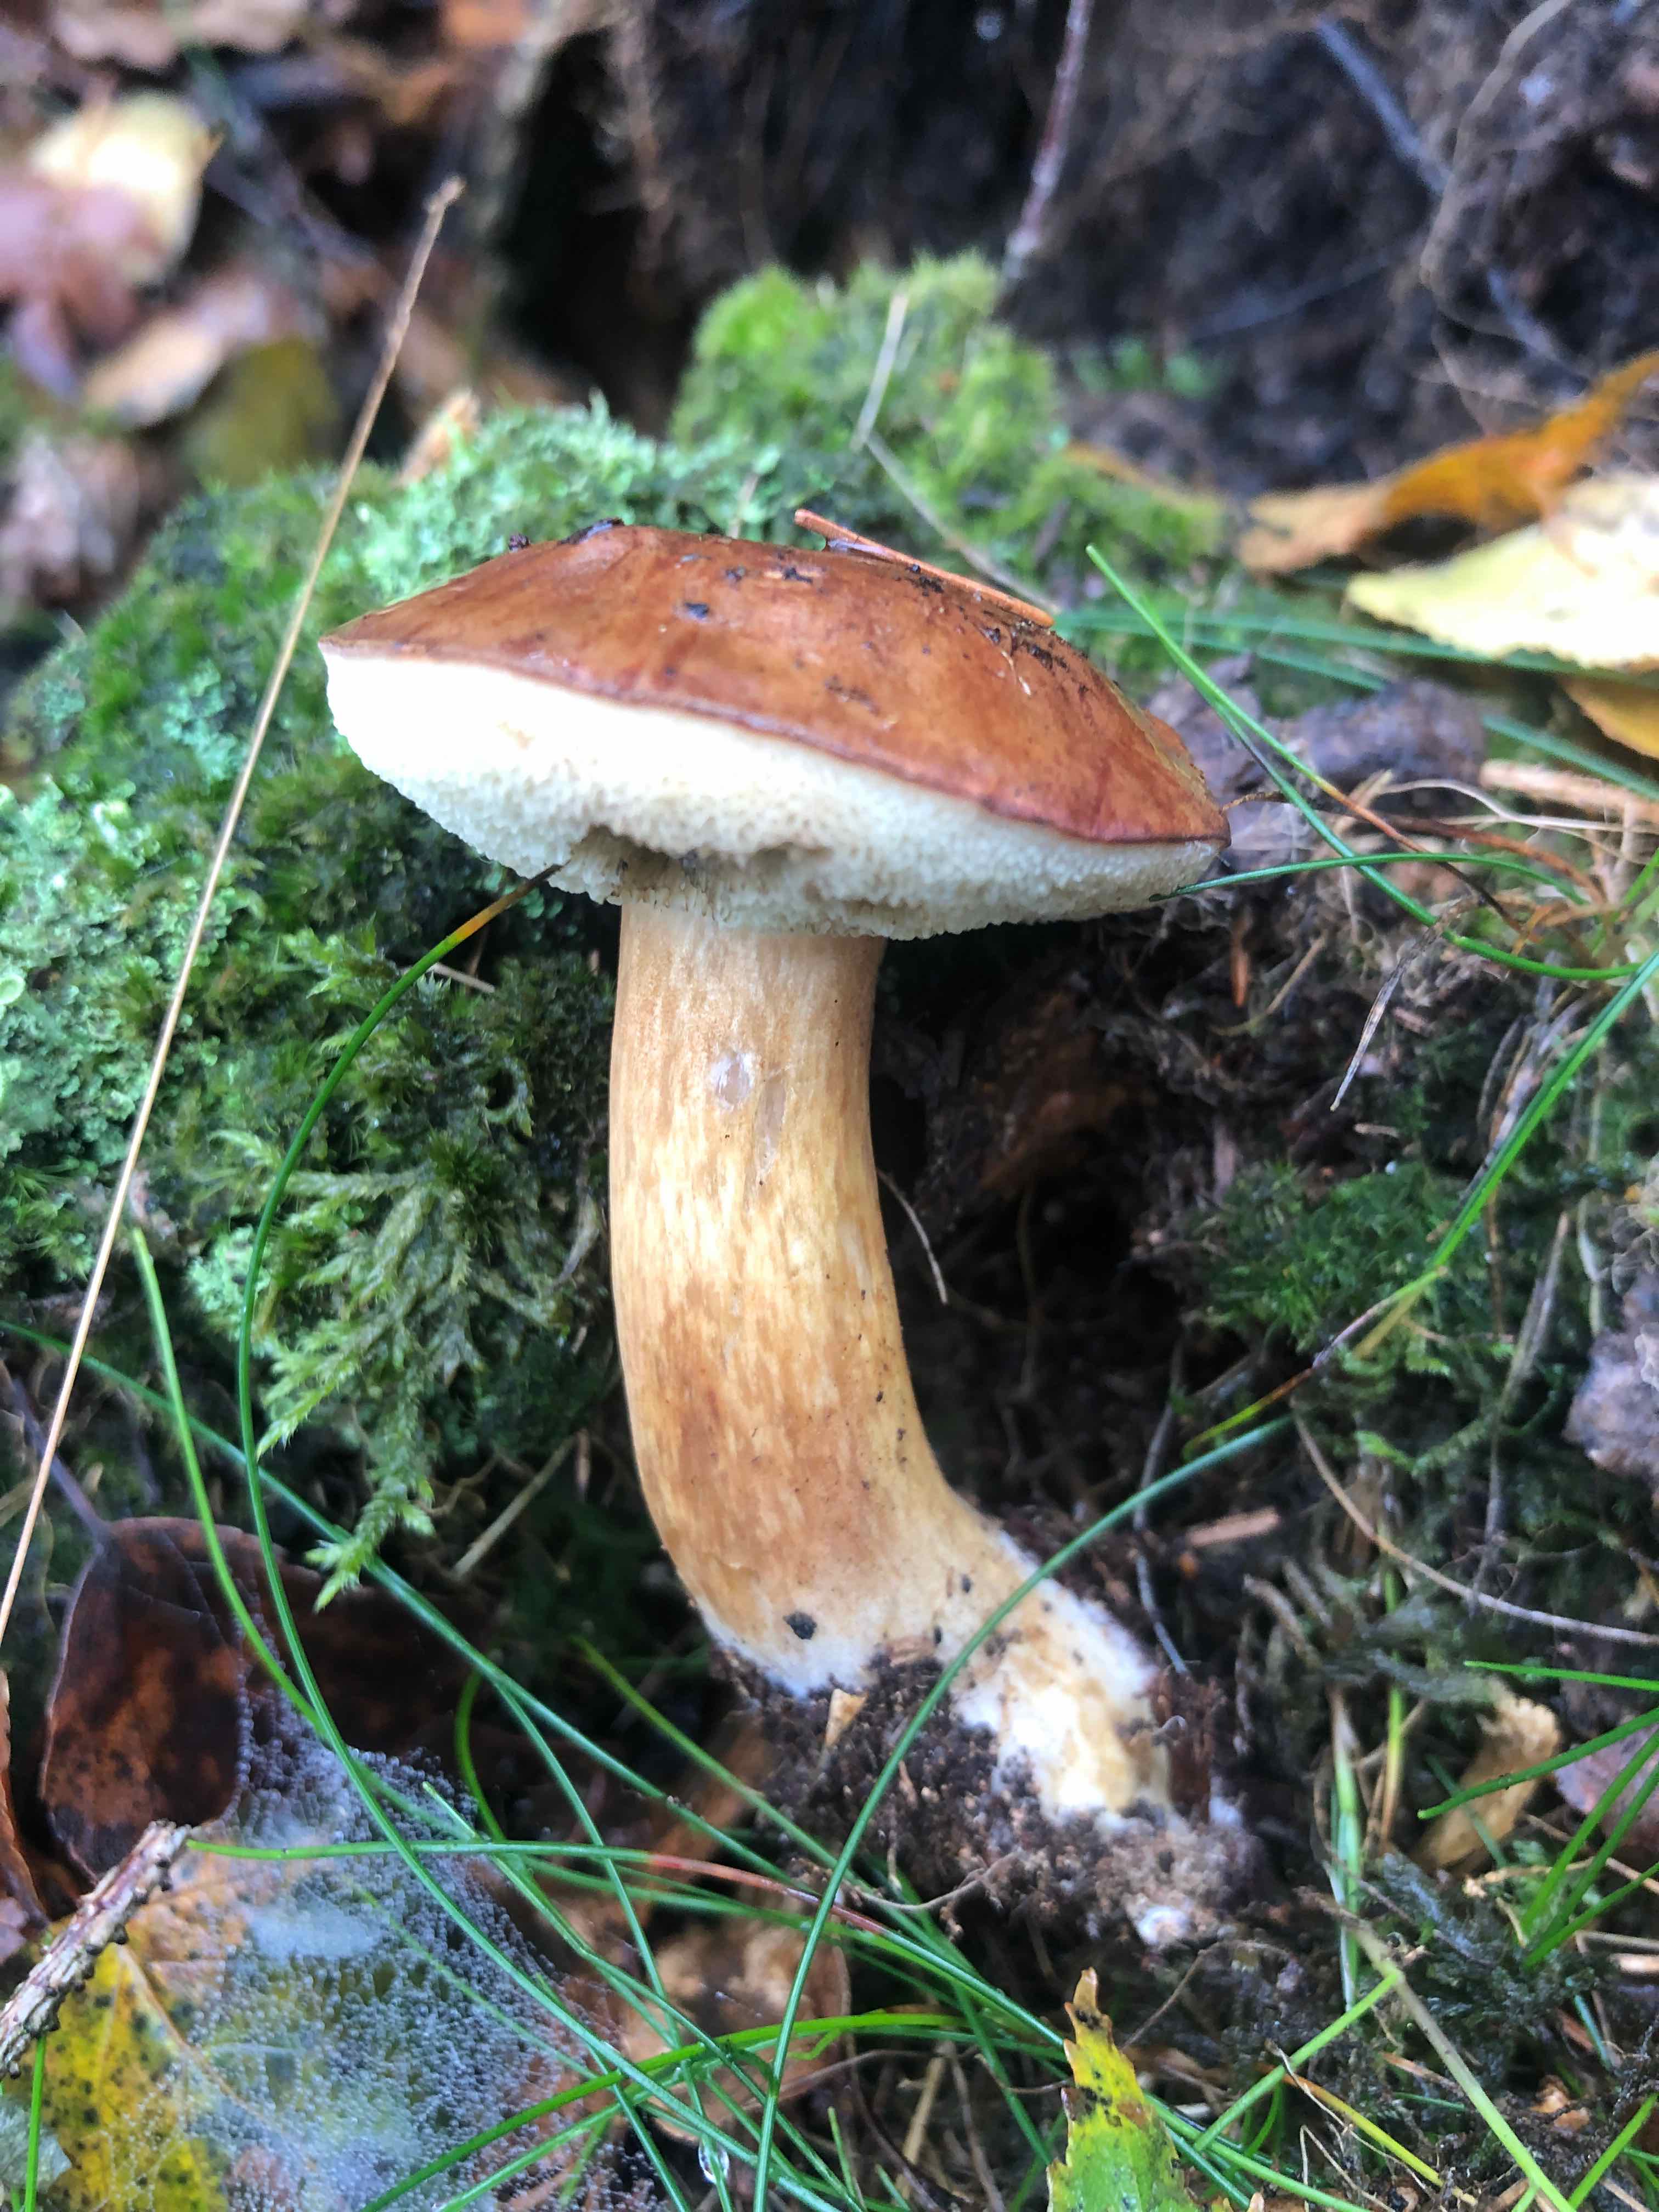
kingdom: Fungi
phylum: Basidiomycota
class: Agaricomycetes
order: Boletales
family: Boletaceae
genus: Imleria
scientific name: Imleria badia
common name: brunstokket rørhat
